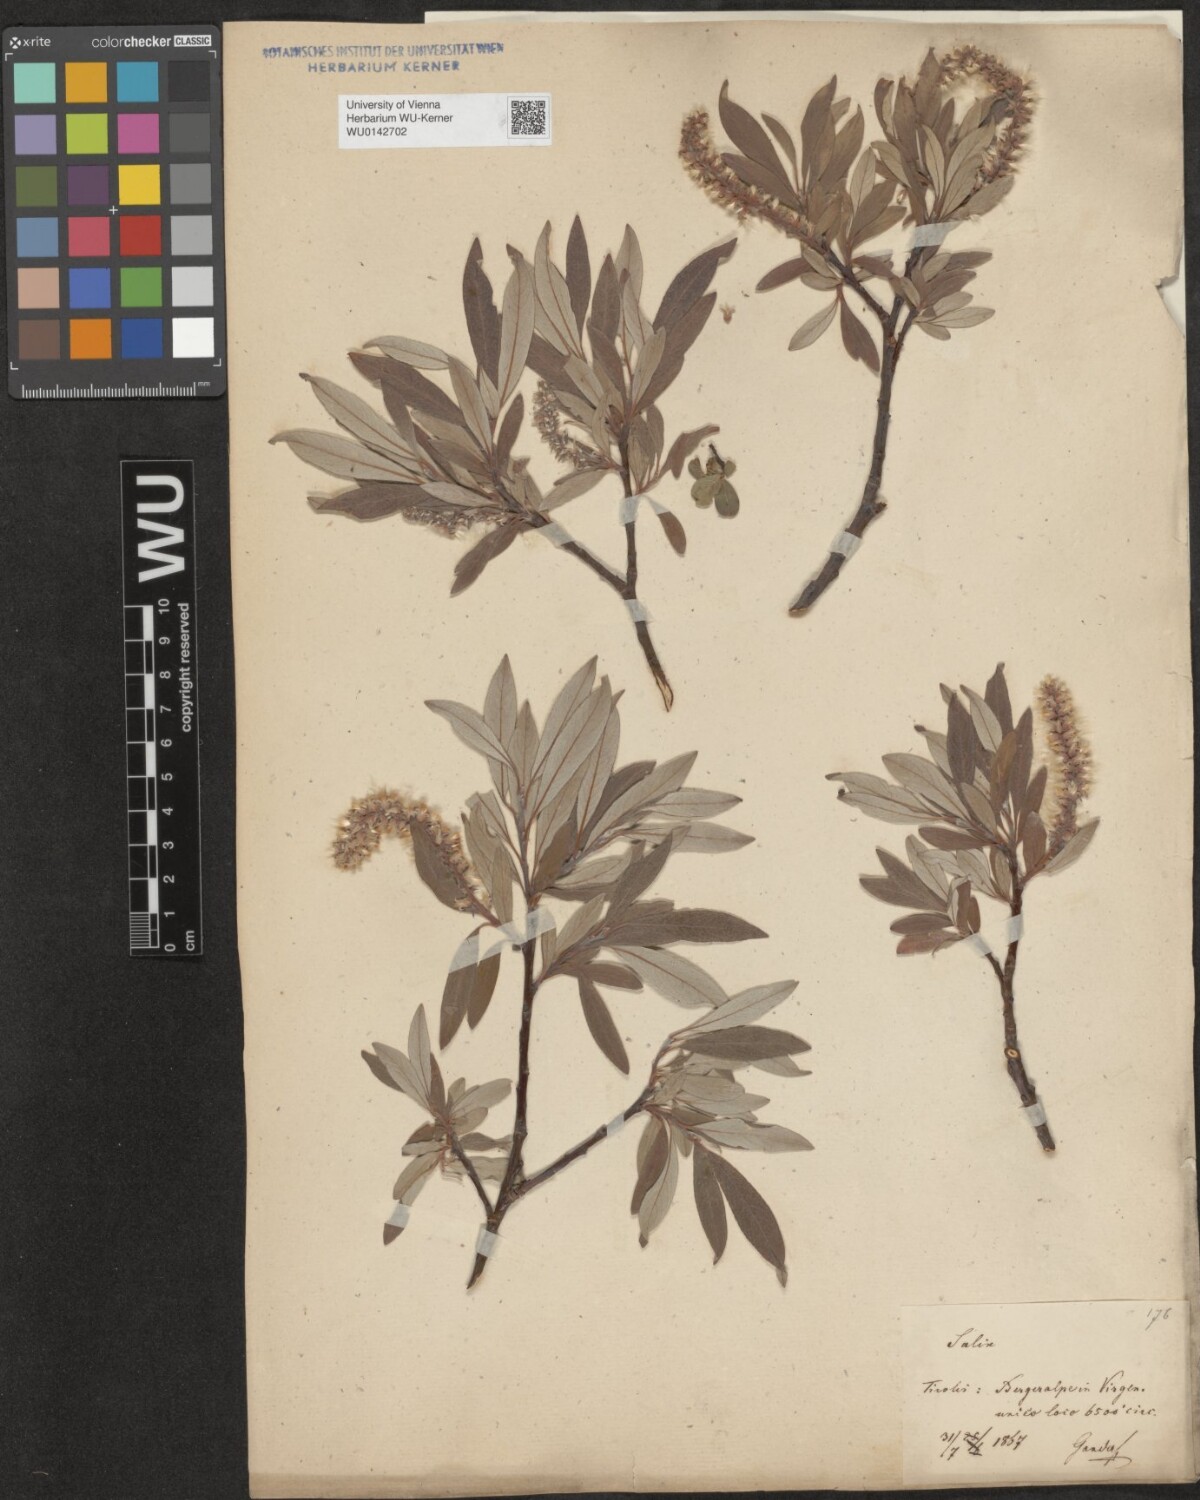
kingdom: Plantae
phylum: Tracheophyta
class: Magnoliopsida
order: Malpighiales
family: Salicaceae
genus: Salix
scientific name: Salix helvetica
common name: Swiss willow
